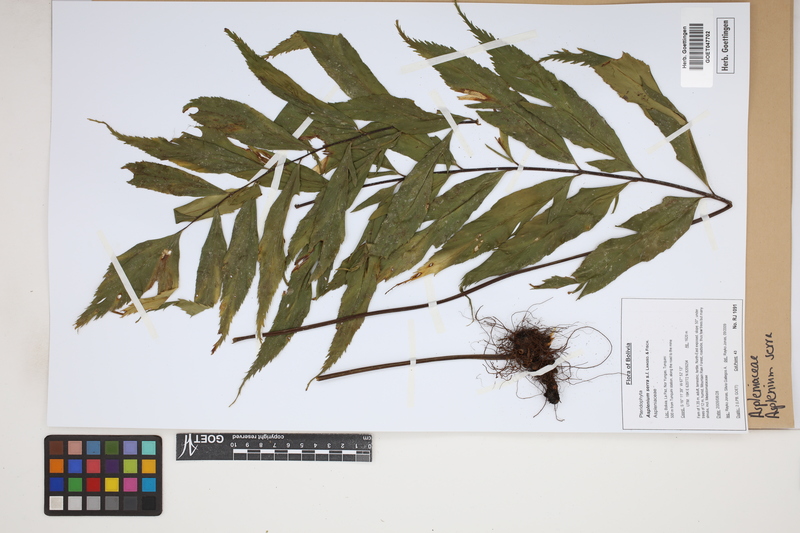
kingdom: Plantae
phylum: Tracheophyta
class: Polypodiopsida
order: Polypodiales
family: Aspleniaceae
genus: Asplenium
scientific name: Asplenium serra
